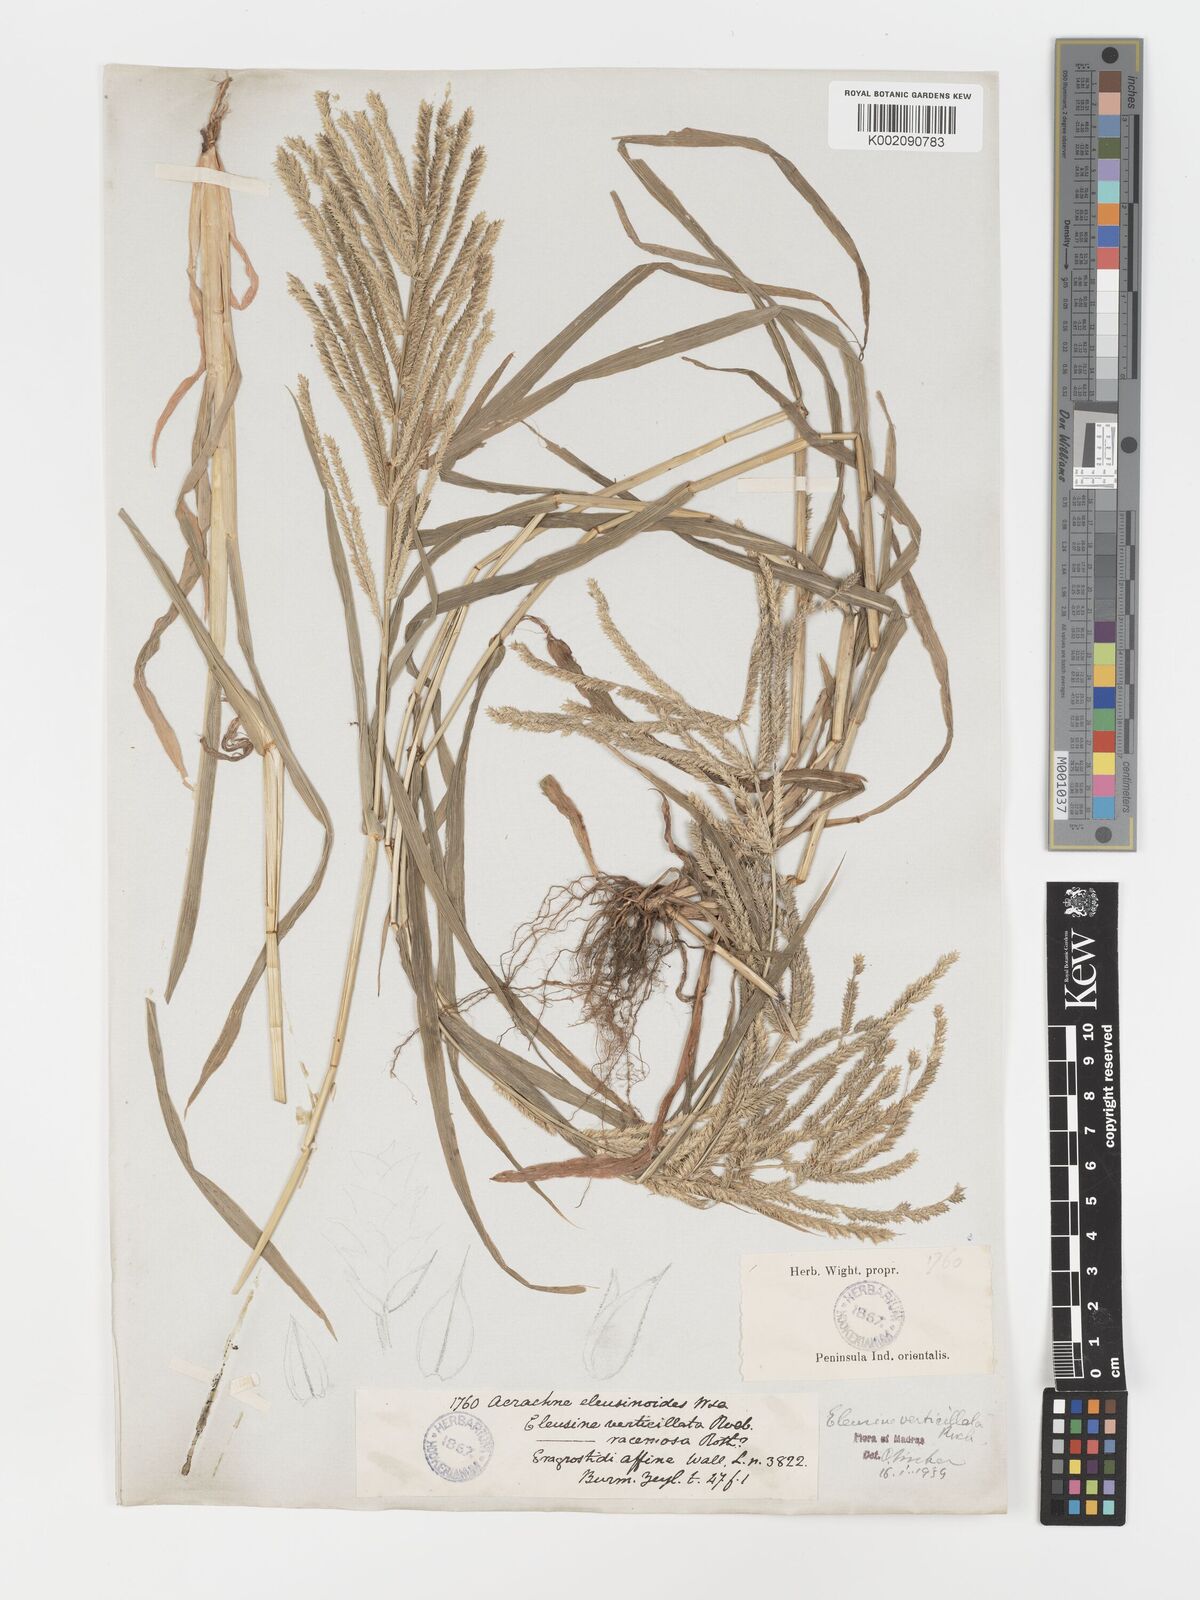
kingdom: Plantae
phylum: Tracheophyta
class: Liliopsida
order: Poales
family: Poaceae
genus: Acrachne
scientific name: Acrachne racemosa
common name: Goosegrass
